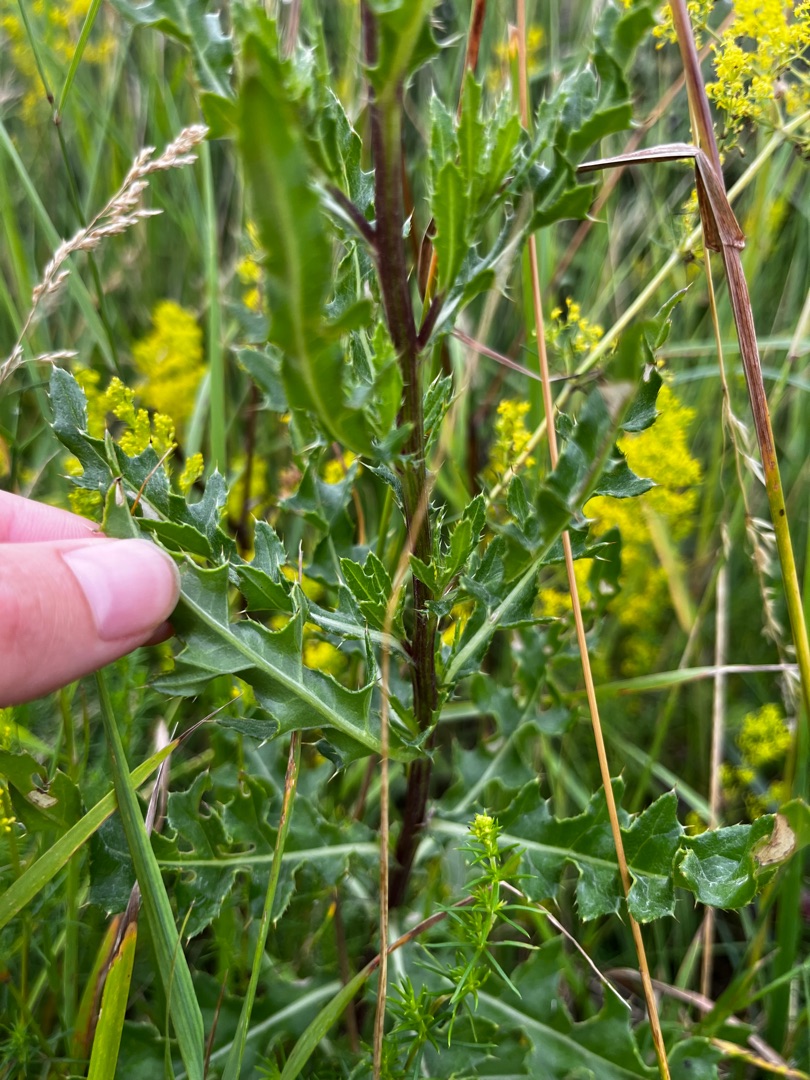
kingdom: Plantae
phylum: Tracheophyta
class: Magnoliopsida
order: Asterales
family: Asteraceae
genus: Cirsium
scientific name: Cirsium arvense
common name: Ager-tidsel
